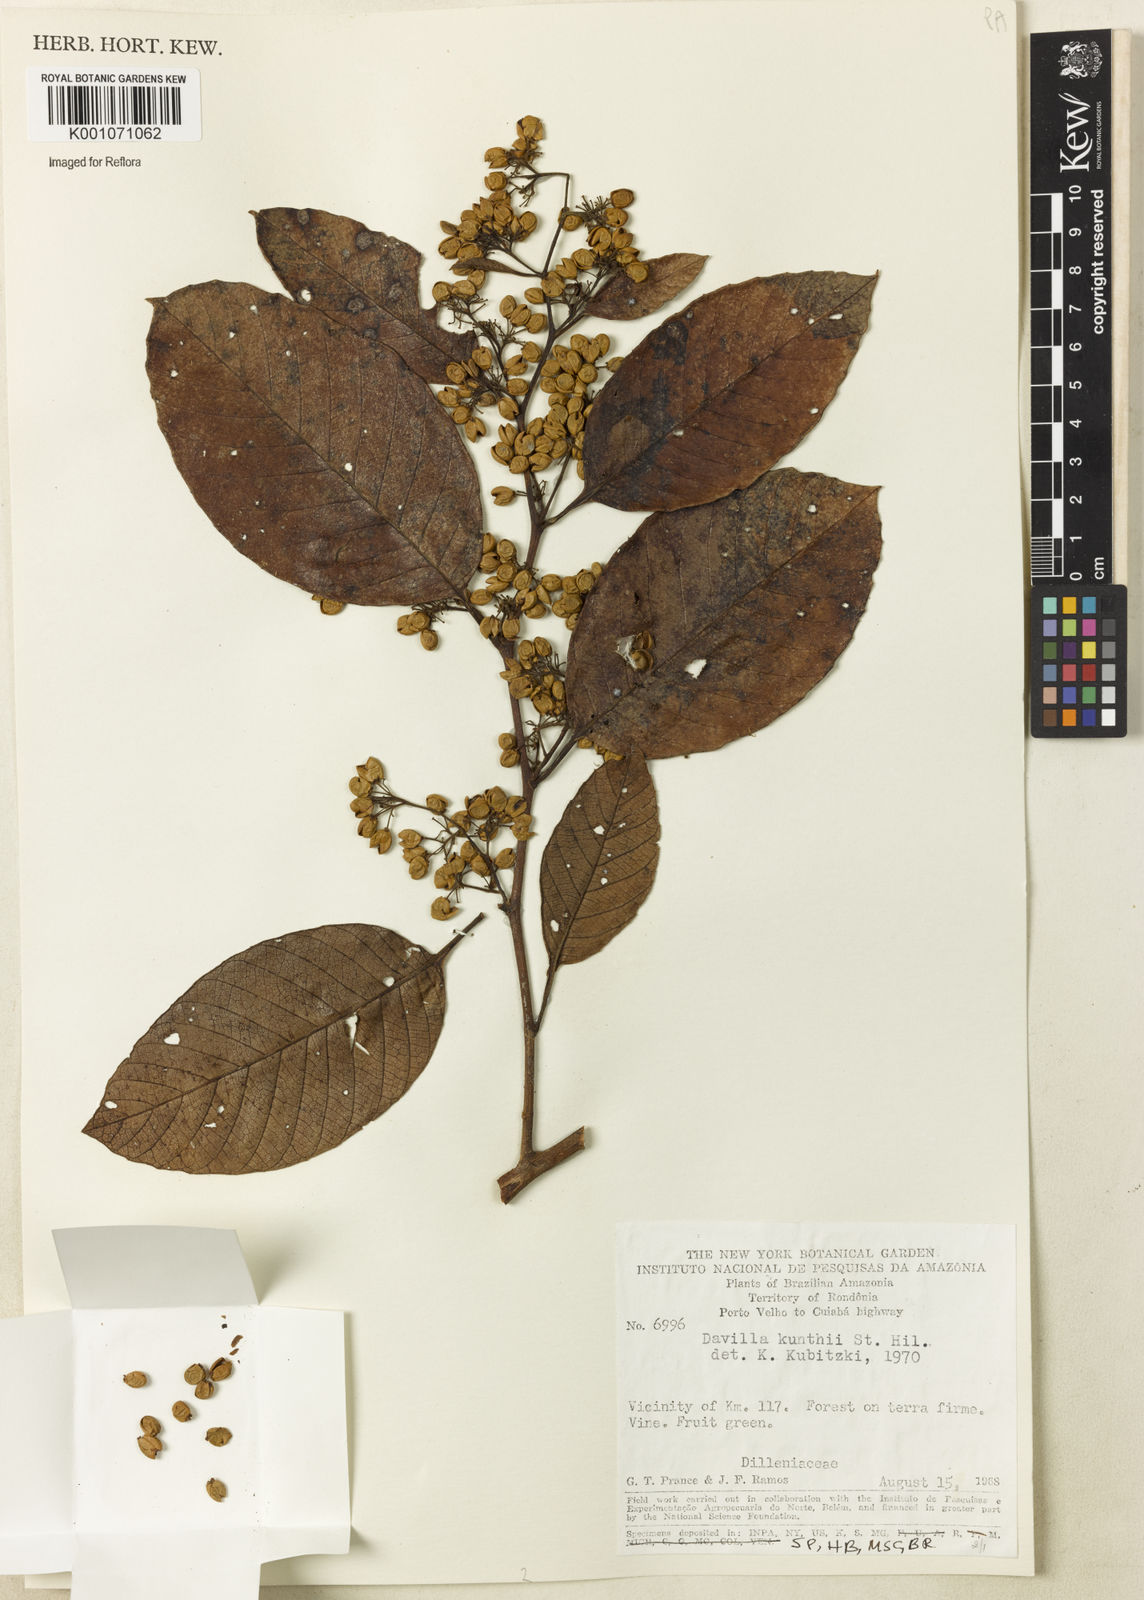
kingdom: Plantae
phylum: Tracheophyta
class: Magnoliopsida
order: Dilleniales
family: Dilleniaceae
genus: Davilla
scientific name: Davilla kunthii
